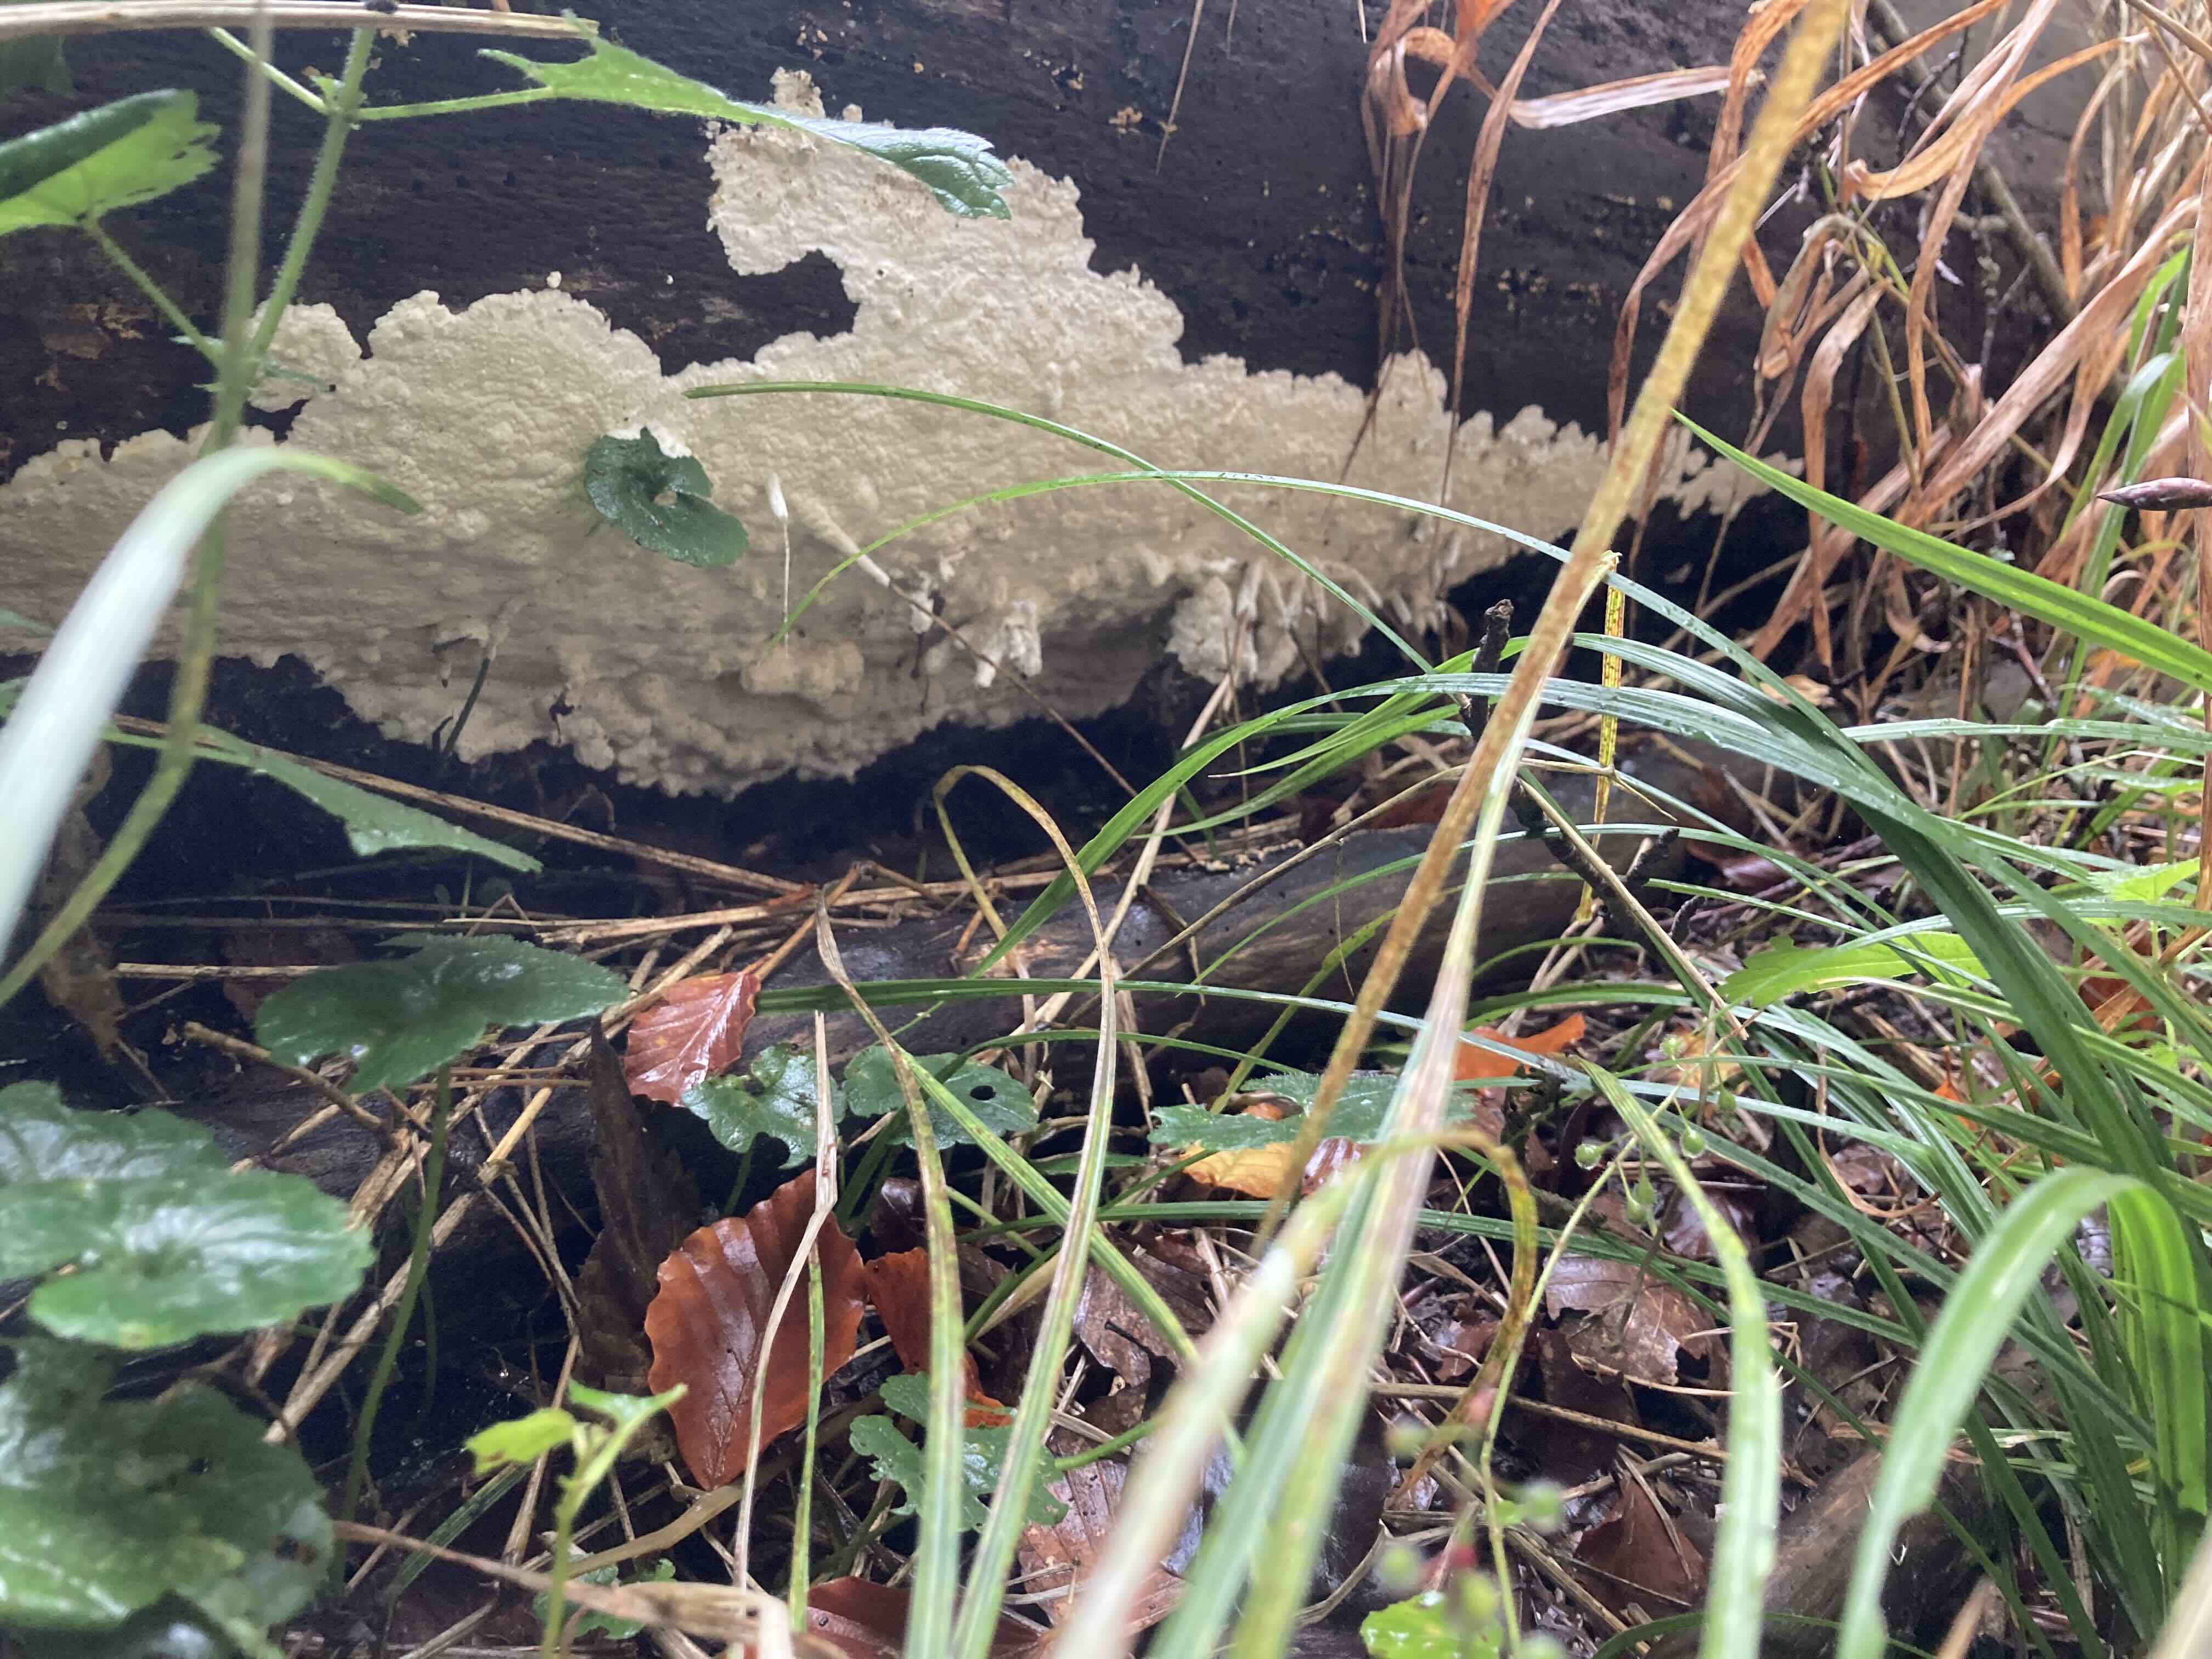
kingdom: Fungi
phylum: Basidiomycota
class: Agaricomycetes
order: Polyporales
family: Irpicaceae
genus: Gloeoporus
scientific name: Gloeoporus pannocinctus
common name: grøngul foldporesvamp
